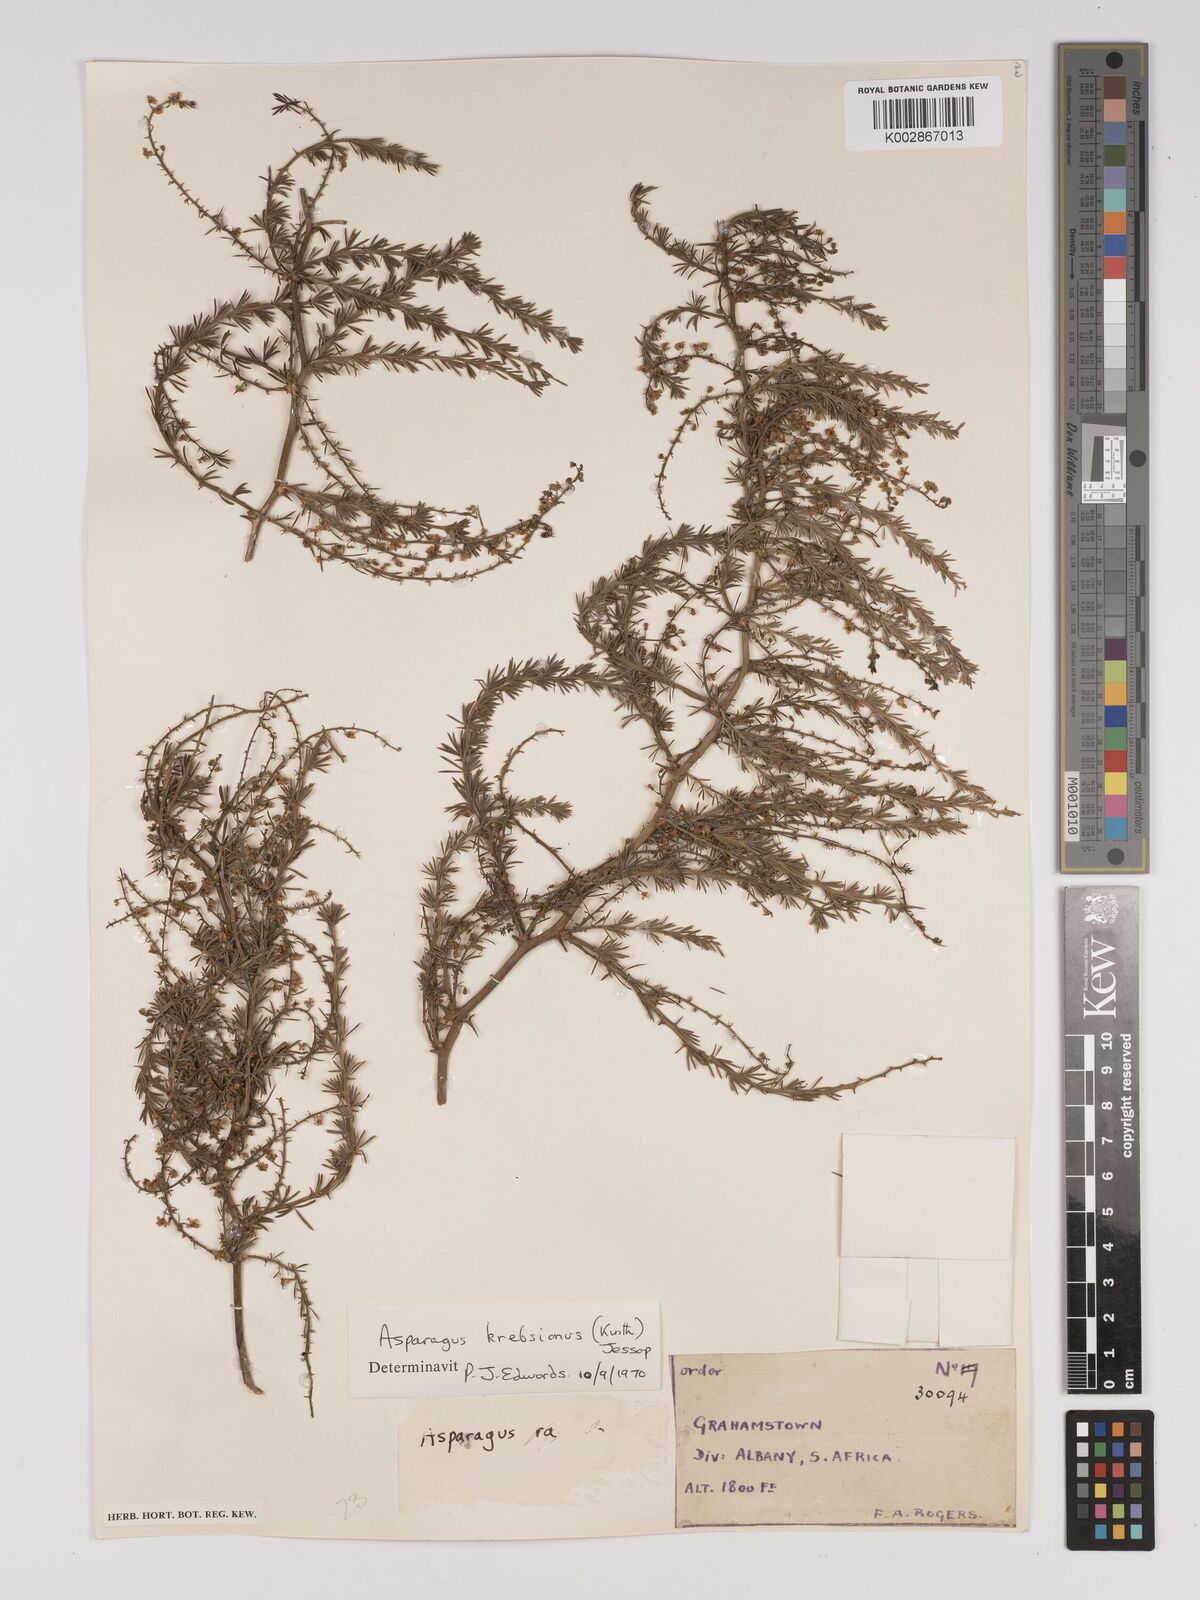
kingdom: Plantae
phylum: Tracheophyta
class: Liliopsida
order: Asparagales
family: Asparagaceae
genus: Asparagus
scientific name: Asparagus krebsianus
